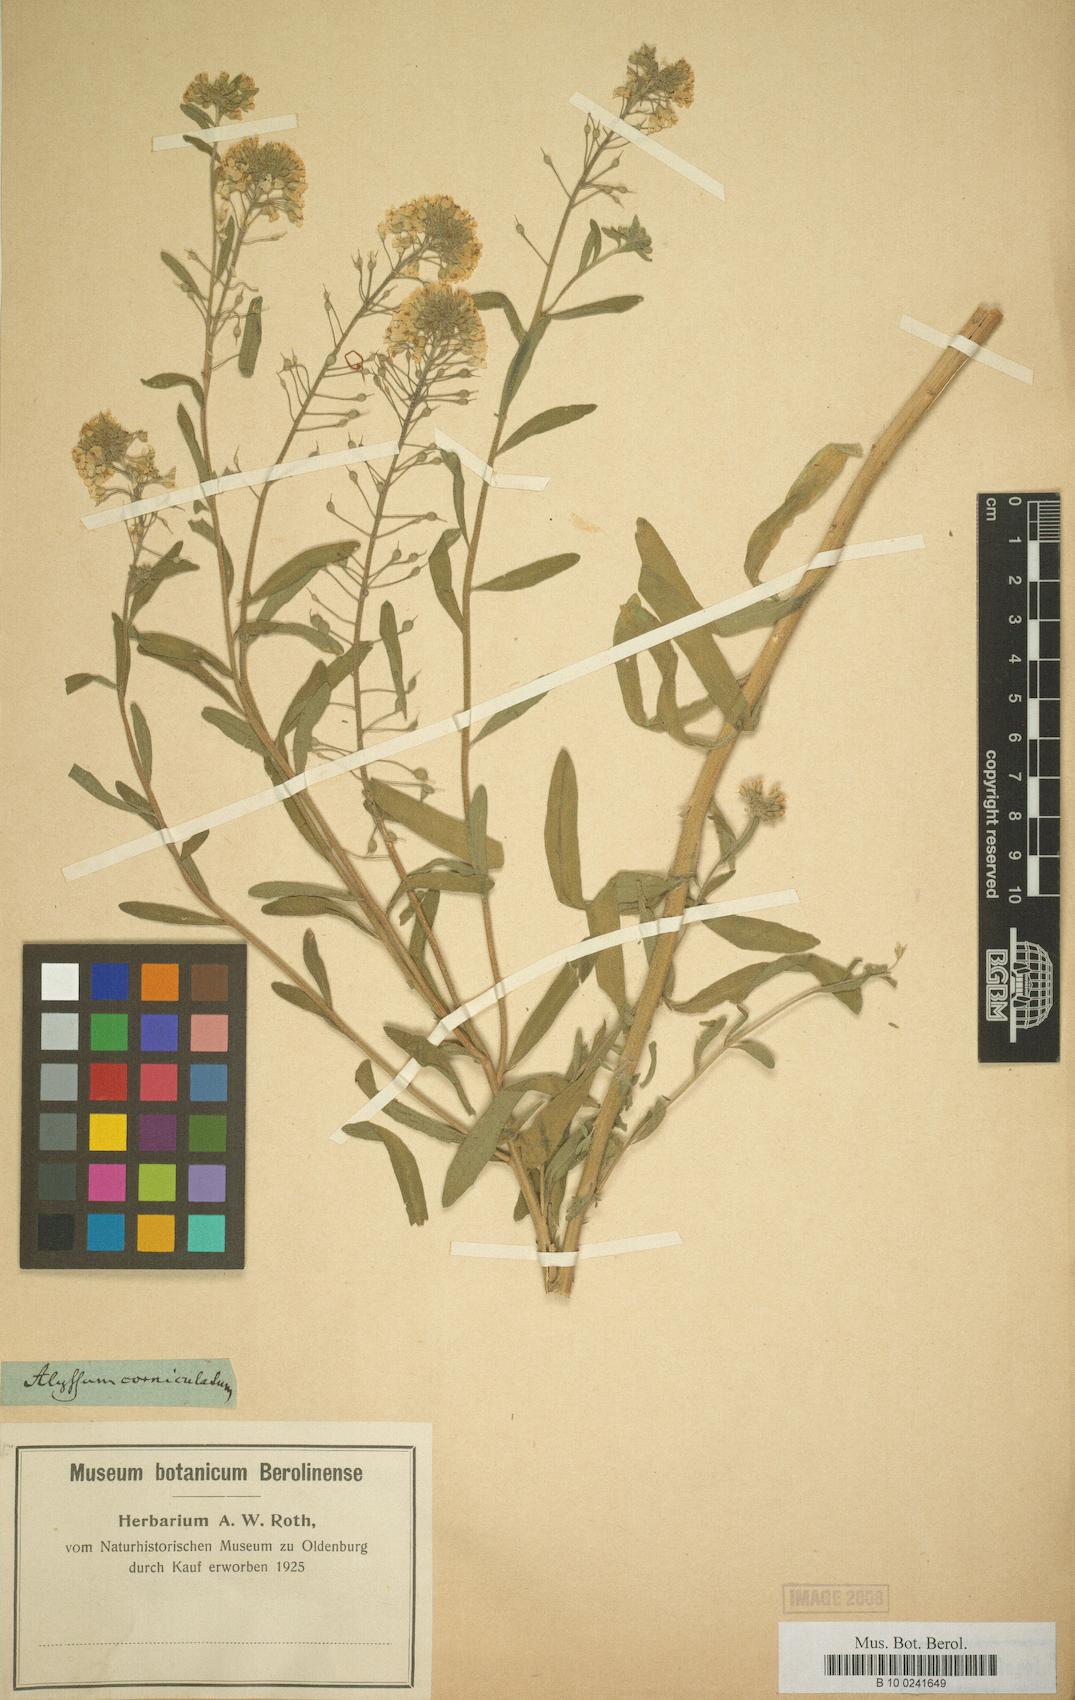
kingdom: Plantae
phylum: Tracheophyta
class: Magnoliopsida
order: Brassicales
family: Brassicaceae
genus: Alyssum
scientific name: Alyssum
